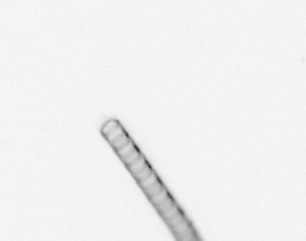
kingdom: Chromista
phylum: Ochrophyta
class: Bacillariophyceae
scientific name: Bacillariophyceae
